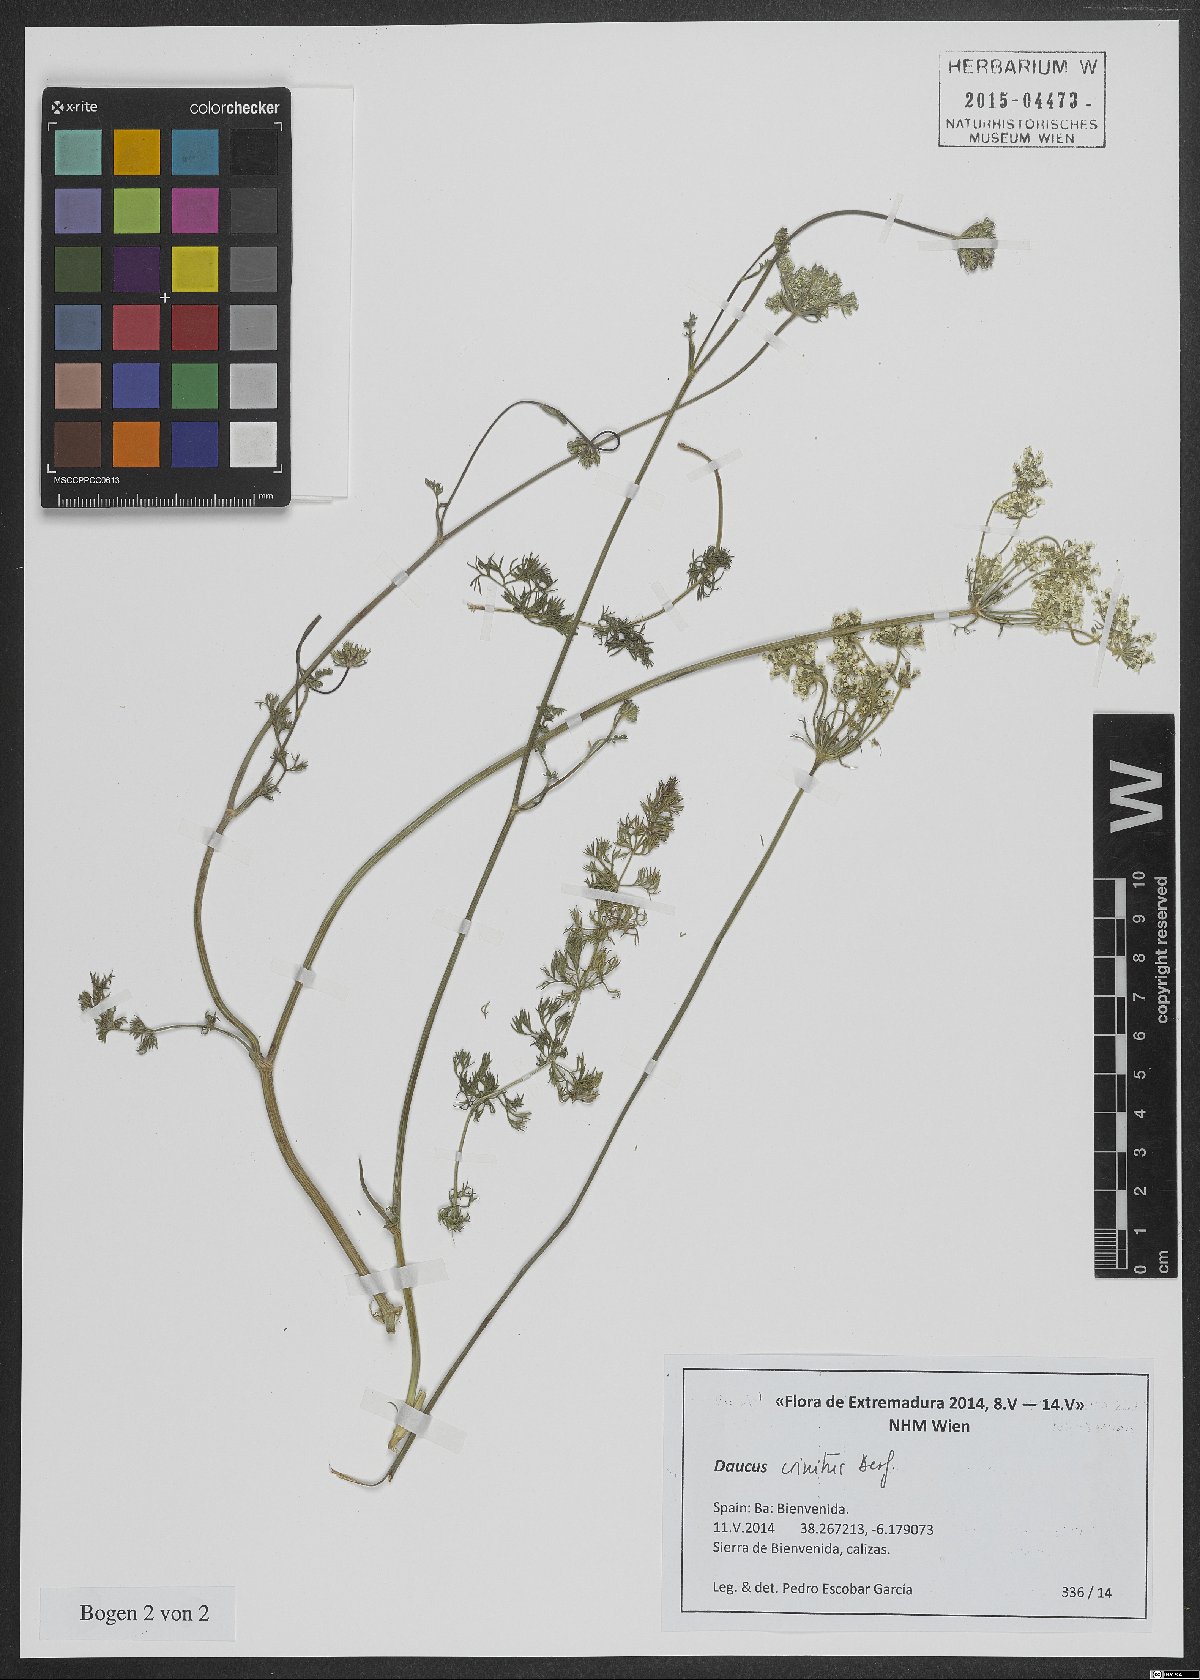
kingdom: Plantae
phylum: Tracheophyta
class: Magnoliopsida
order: Apiales
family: Apiaceae
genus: Daucus
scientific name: Daucus crinitus
